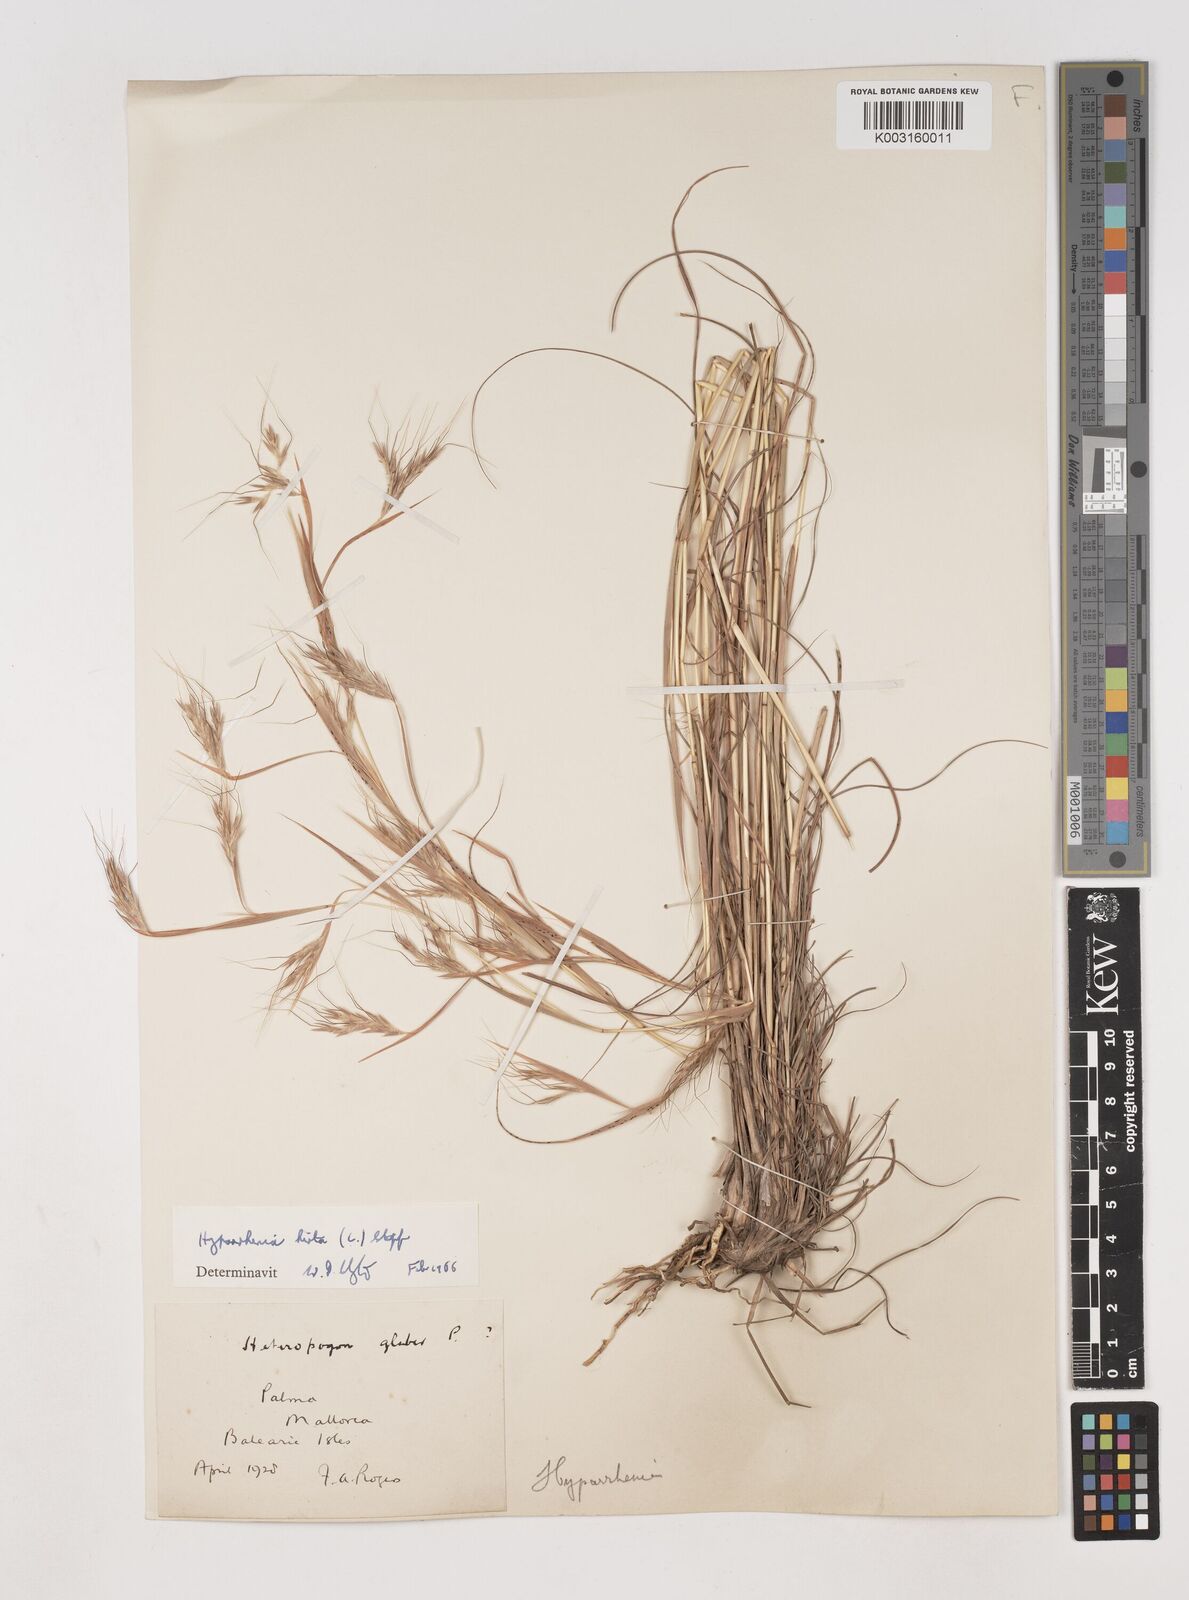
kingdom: Plantae
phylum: Tracheophyta
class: Liliopsida
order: Poales
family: Poaceae
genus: Hyparrhenia
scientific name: Hyparrhenia hirta
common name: Thatching grass
